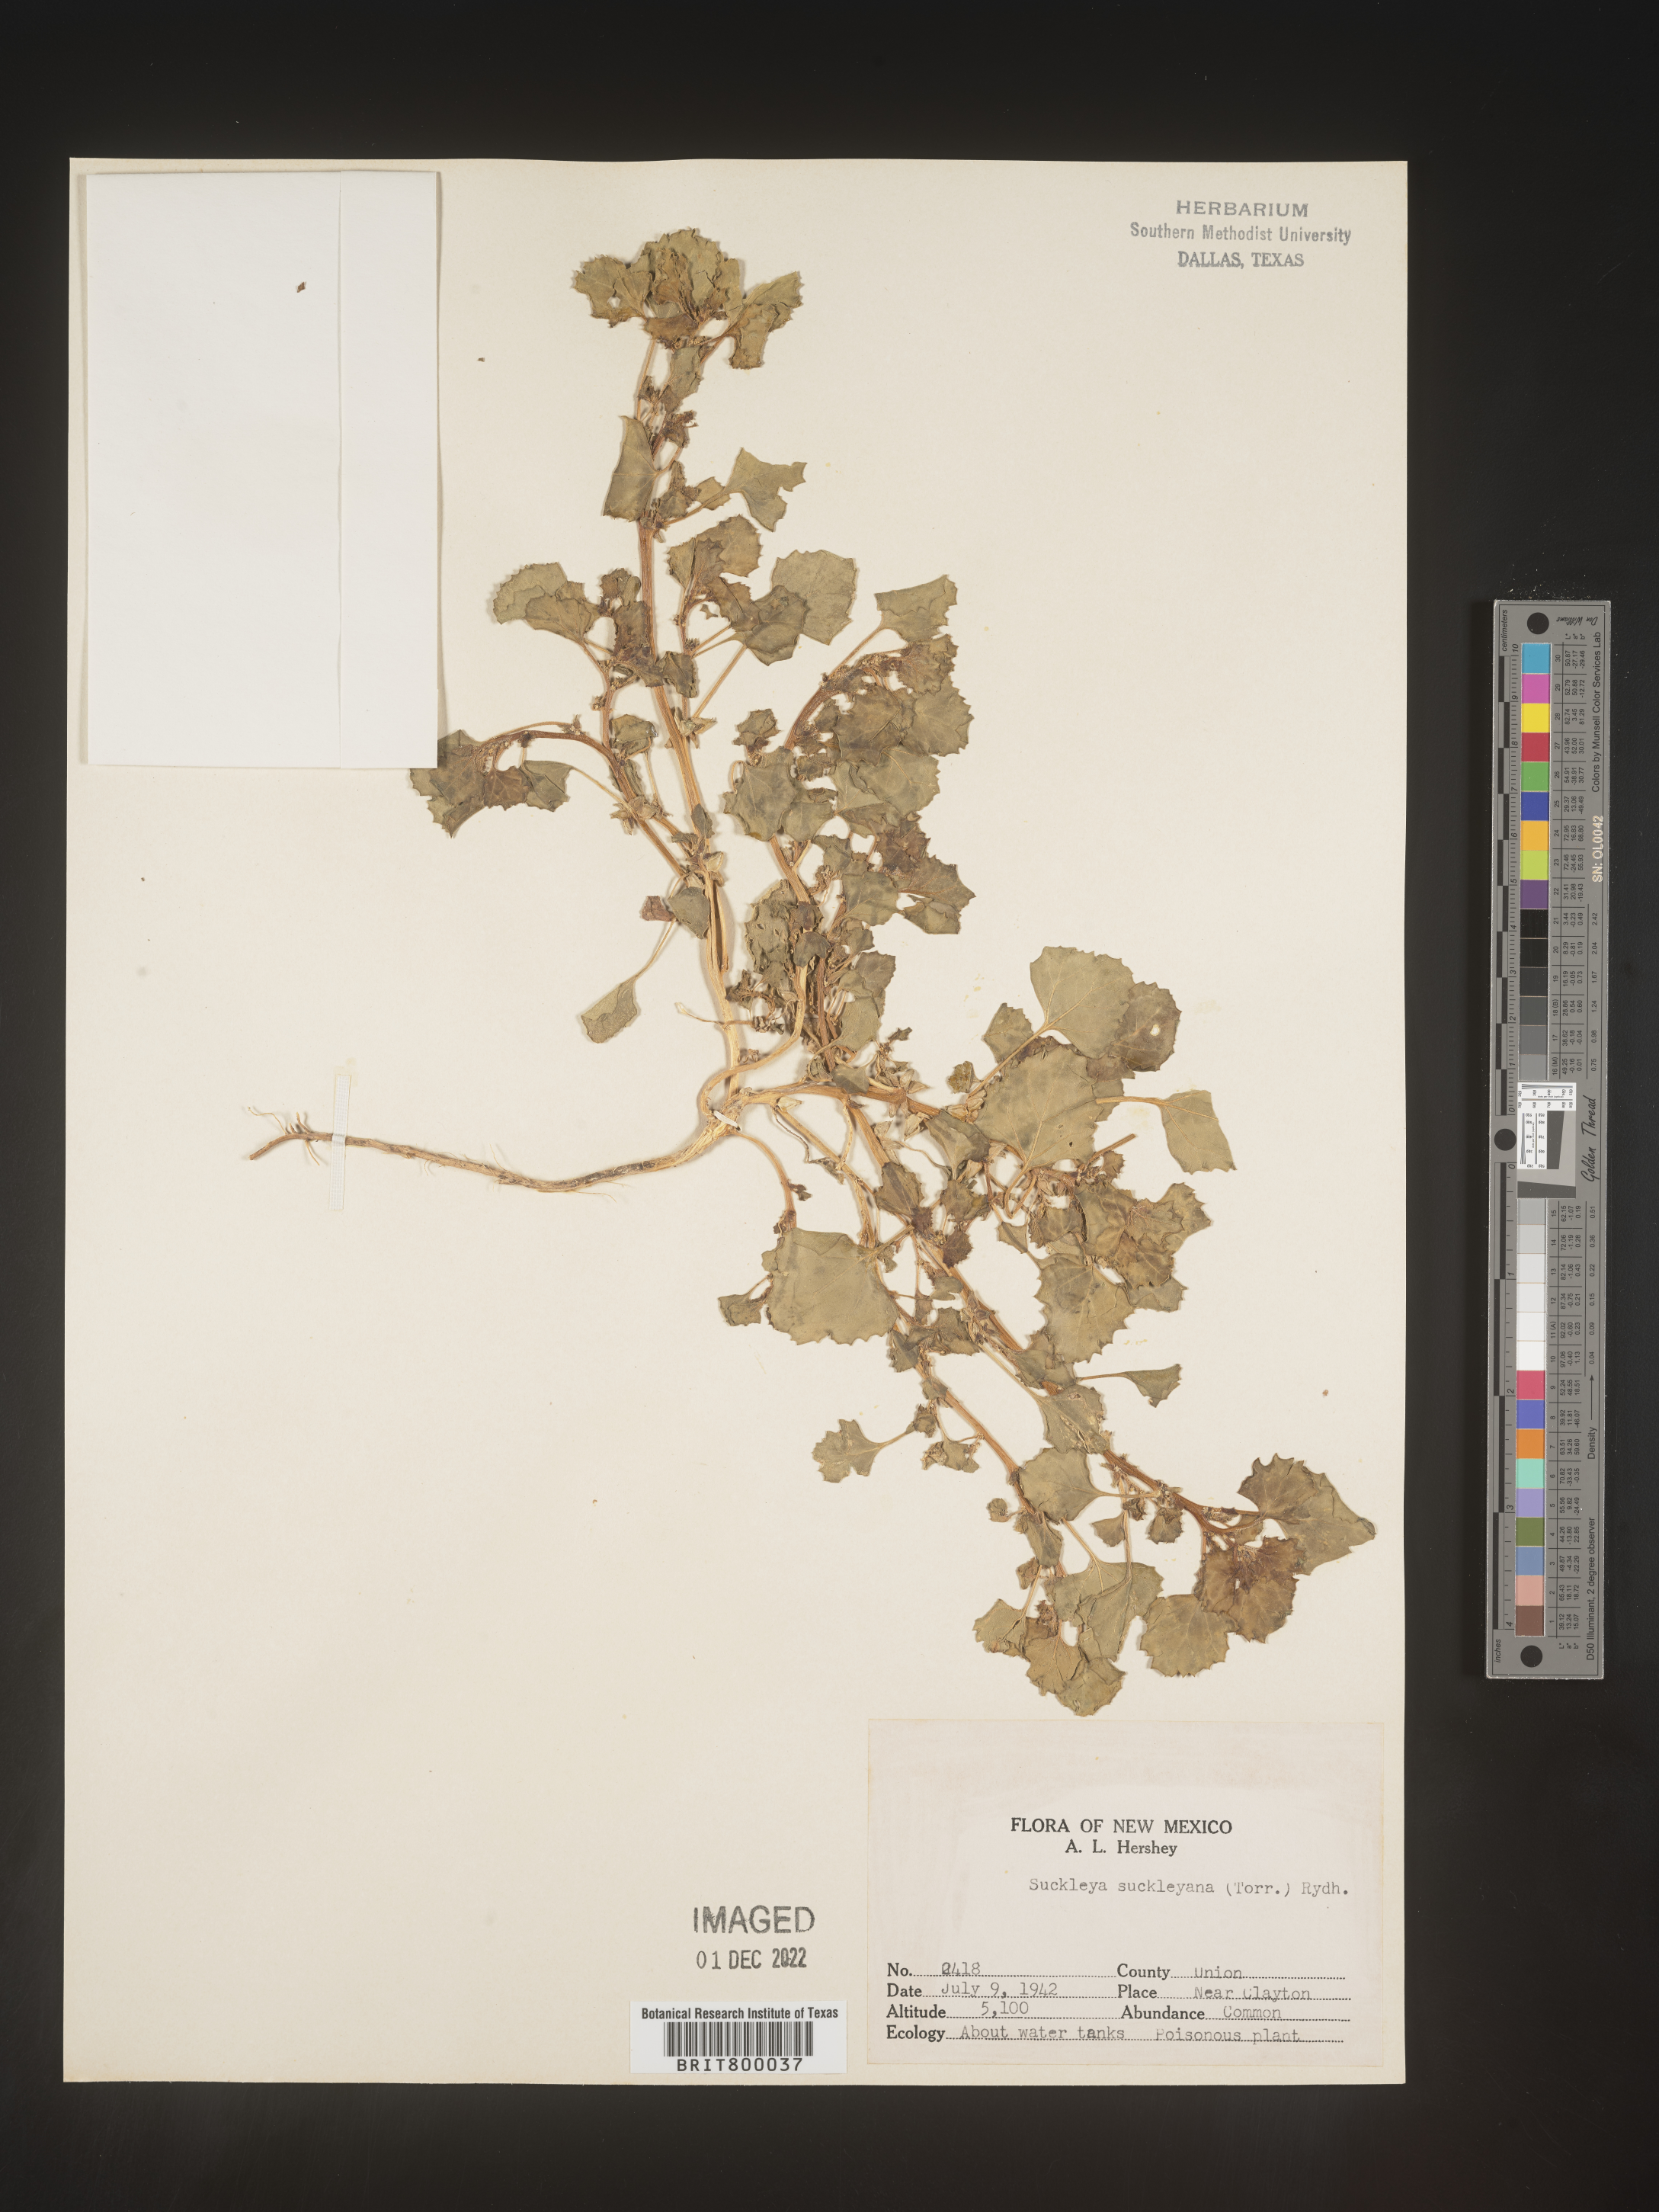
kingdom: Plantae
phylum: Tracheophyta
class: Magnoliopsida
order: Caryophyllales
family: Amaranthaceae
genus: Suckleya
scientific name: Suckleya suckleyana
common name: Poison suckleya
